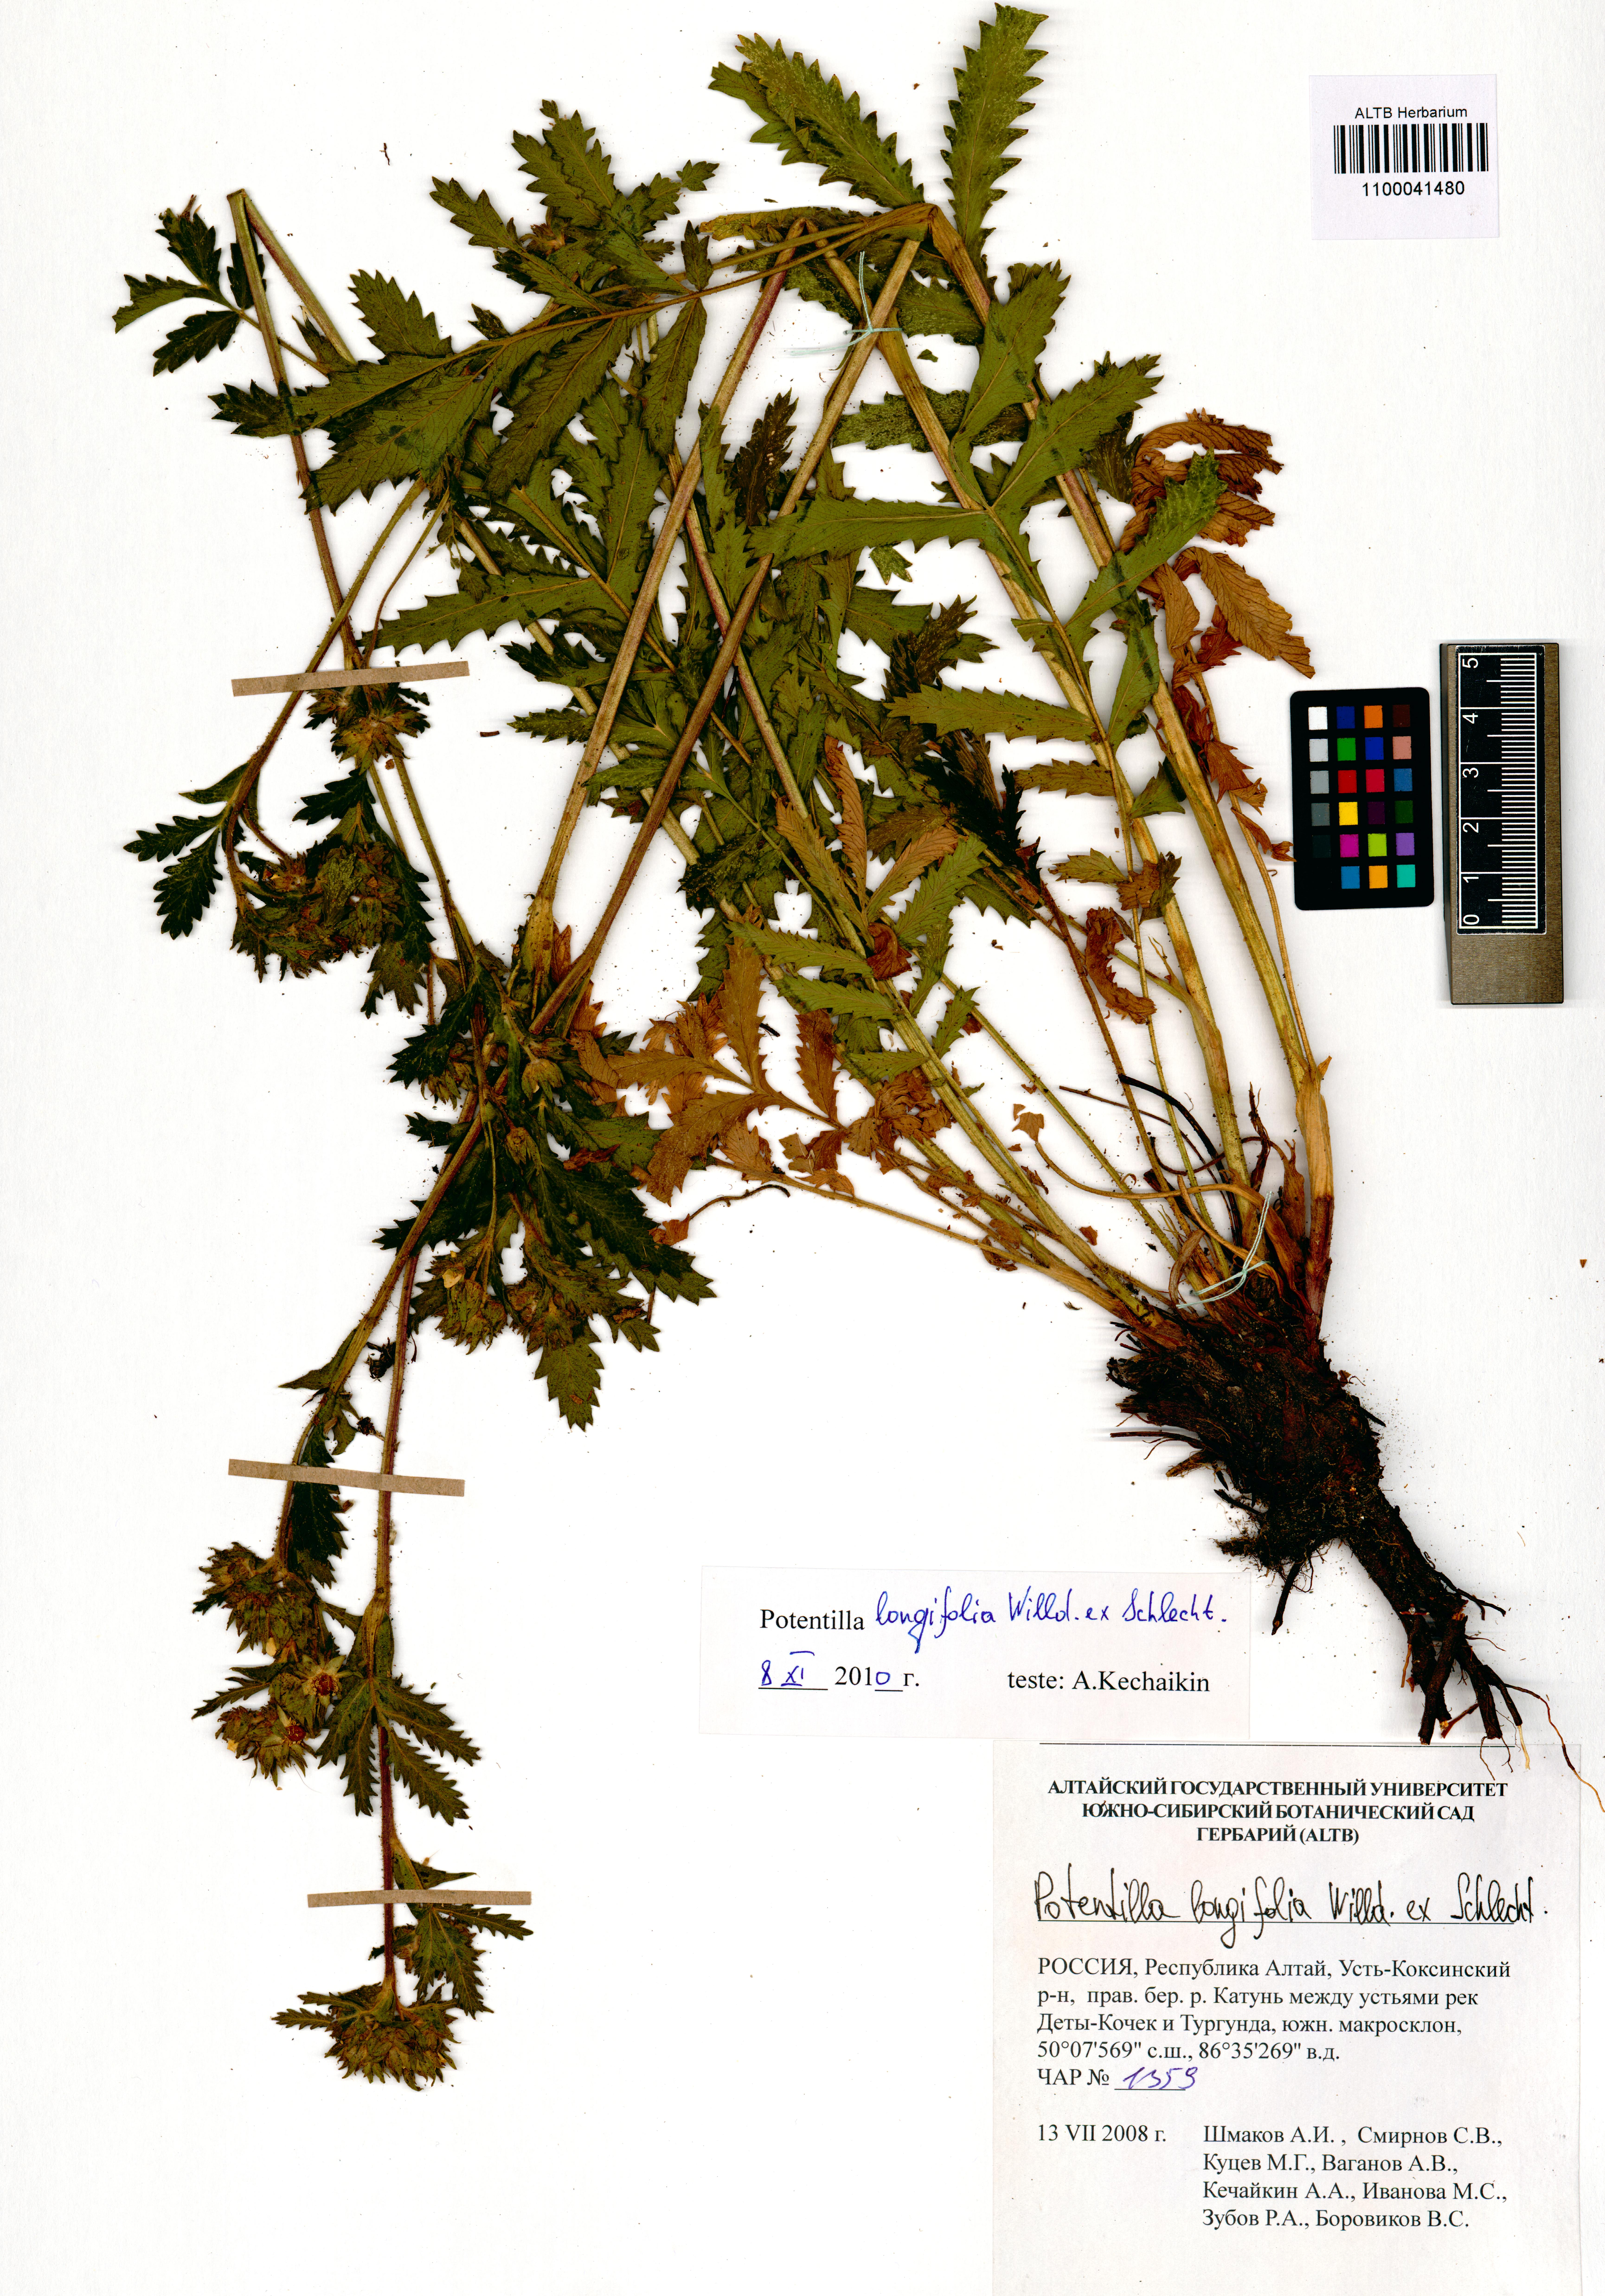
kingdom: Plantae
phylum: Tracheophyta
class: Magnoliopsida
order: Rosales
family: Rosaceae
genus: Potentilla
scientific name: Potentilla longifolia
